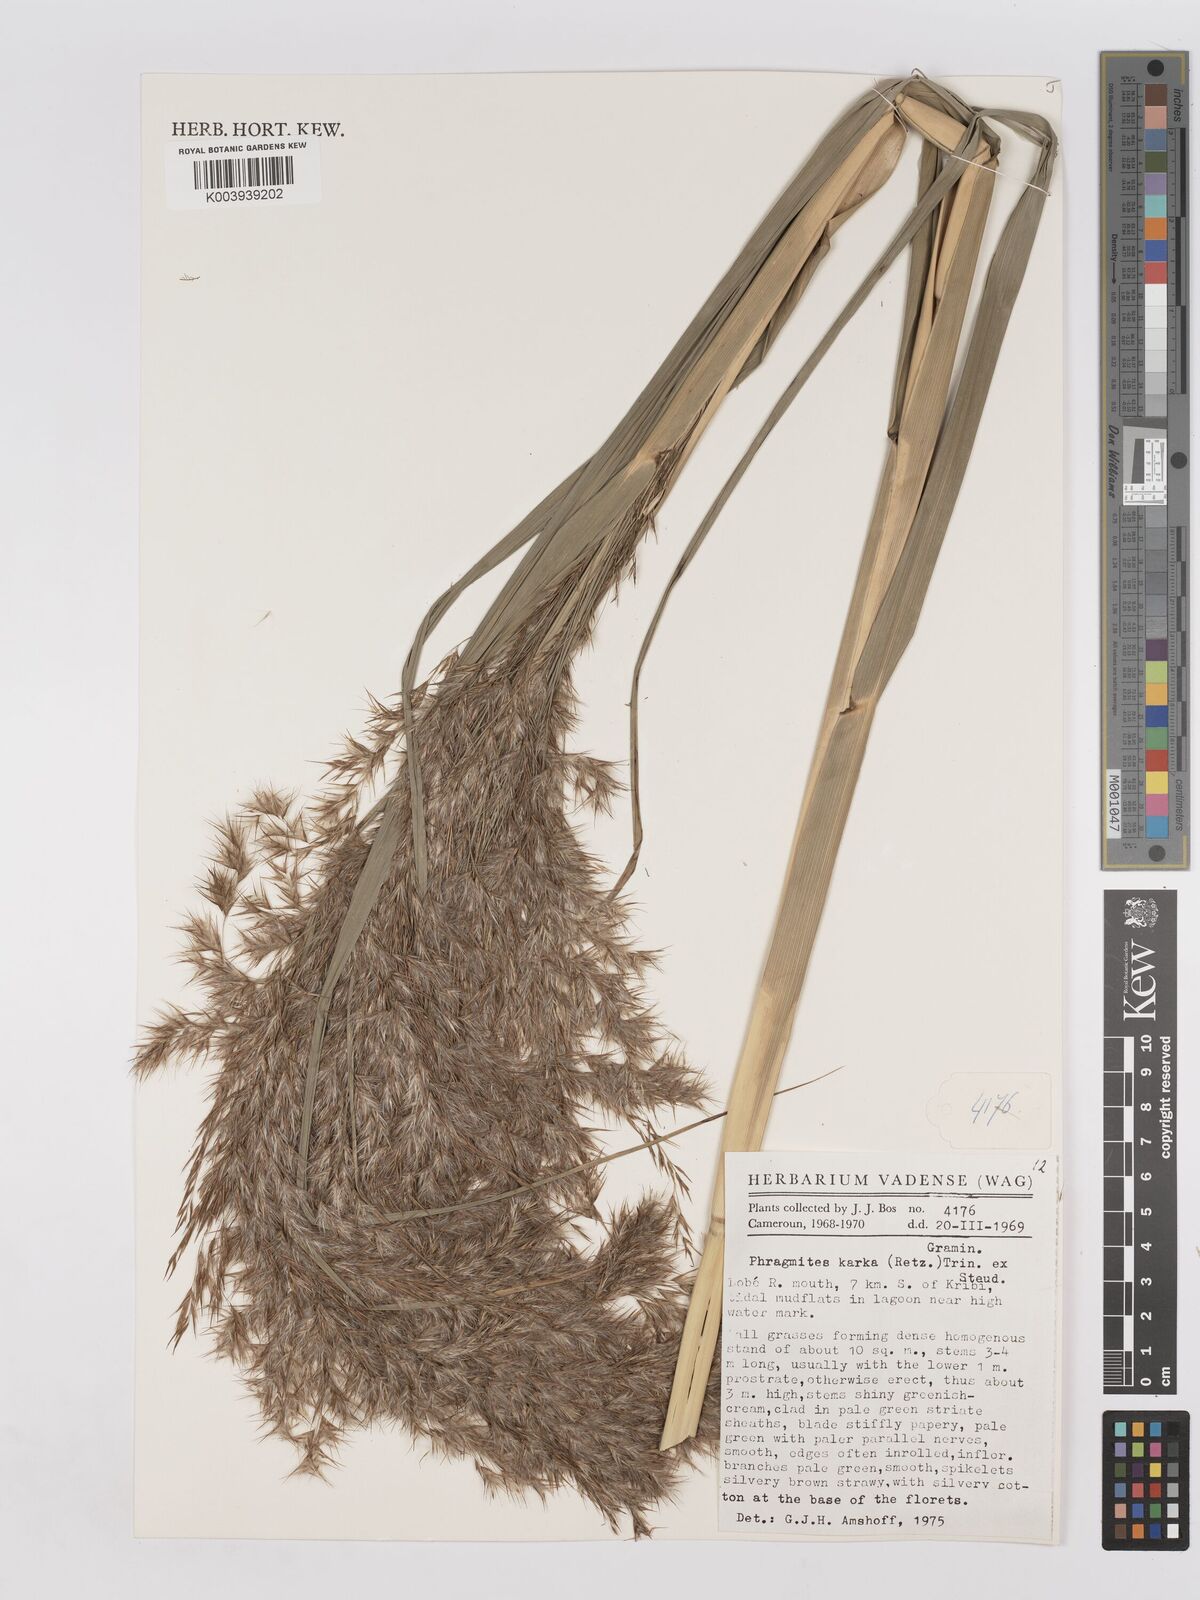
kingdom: Plantae
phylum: Tracheophyta
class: Liliopsida
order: Poales
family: Poaceae
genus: Phragmites
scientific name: Phragmites karka
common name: Tropical reed
